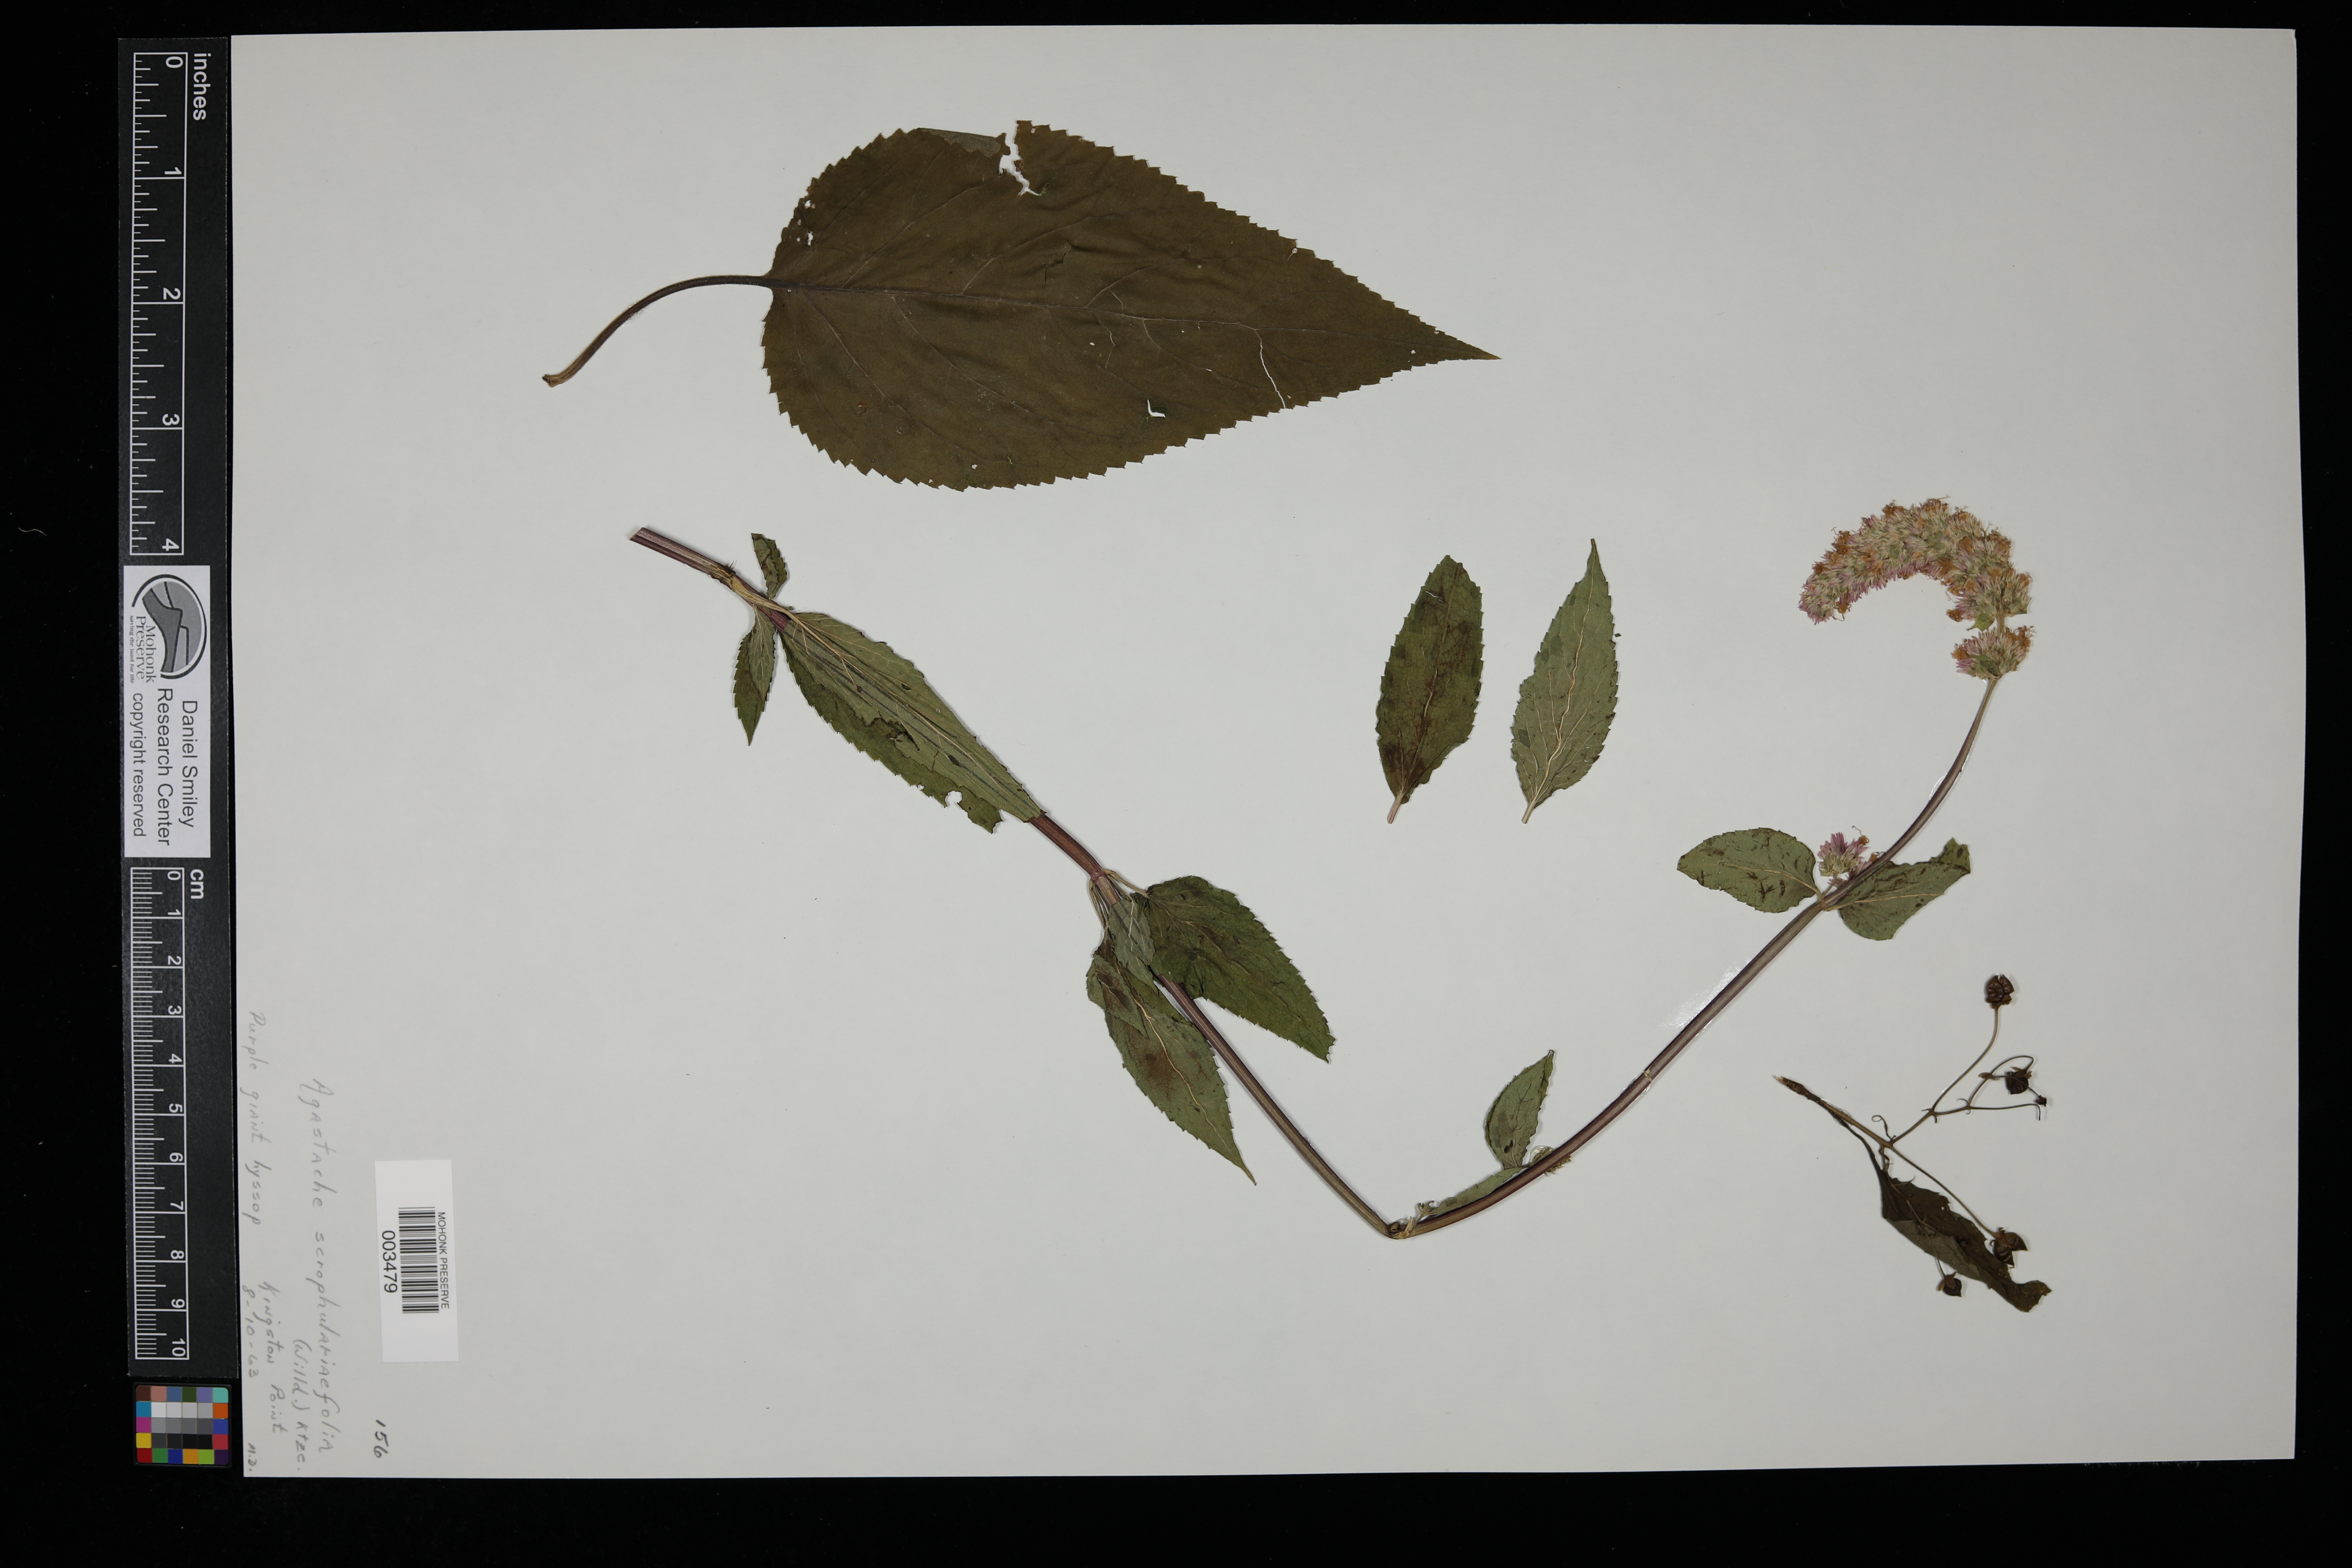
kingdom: Plantae
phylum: Tracheophyta
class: Magnoliopsida
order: Lamiales
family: Lamiaceae
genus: Agastache
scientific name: Agastache scrophulariifolia
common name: Figwort giant hyssop
